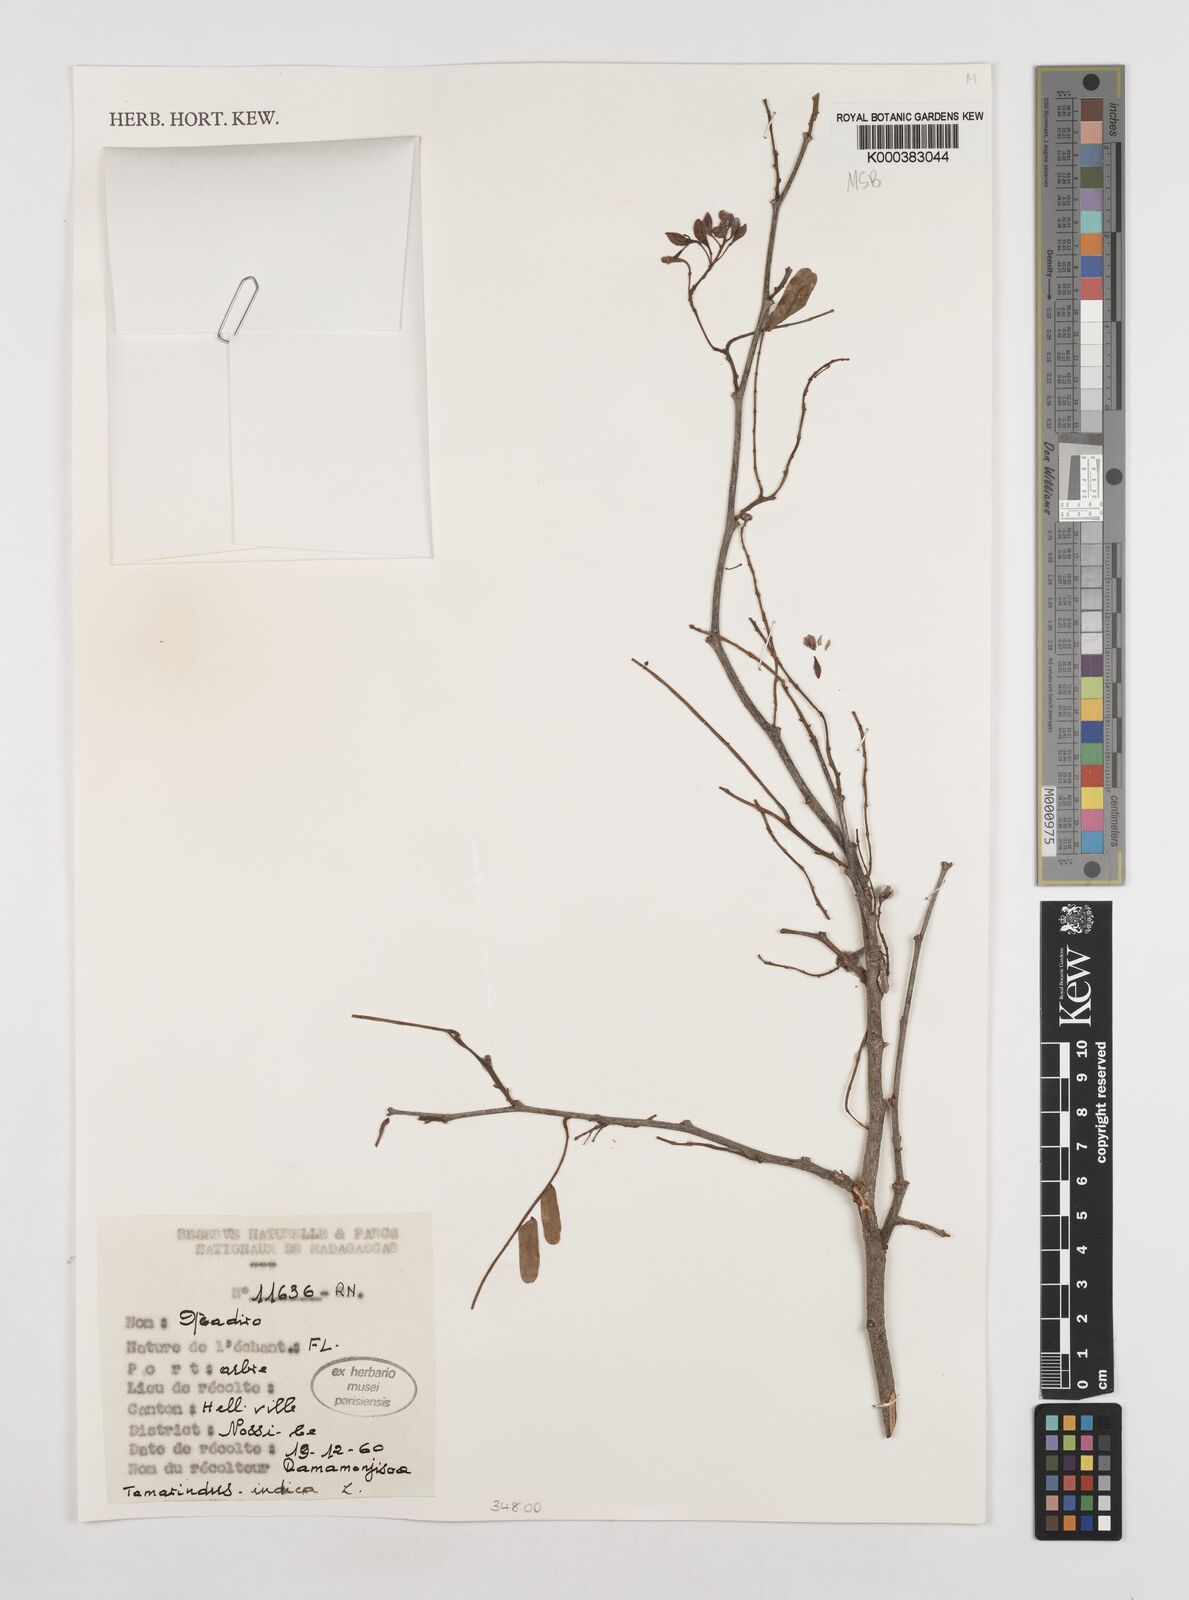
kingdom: Plantae
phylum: Tracheophyta
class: Magnoliopsida
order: Fabales
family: Fabaceae
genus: Tamarindus
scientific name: Tamarindus indica
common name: Tamarind
